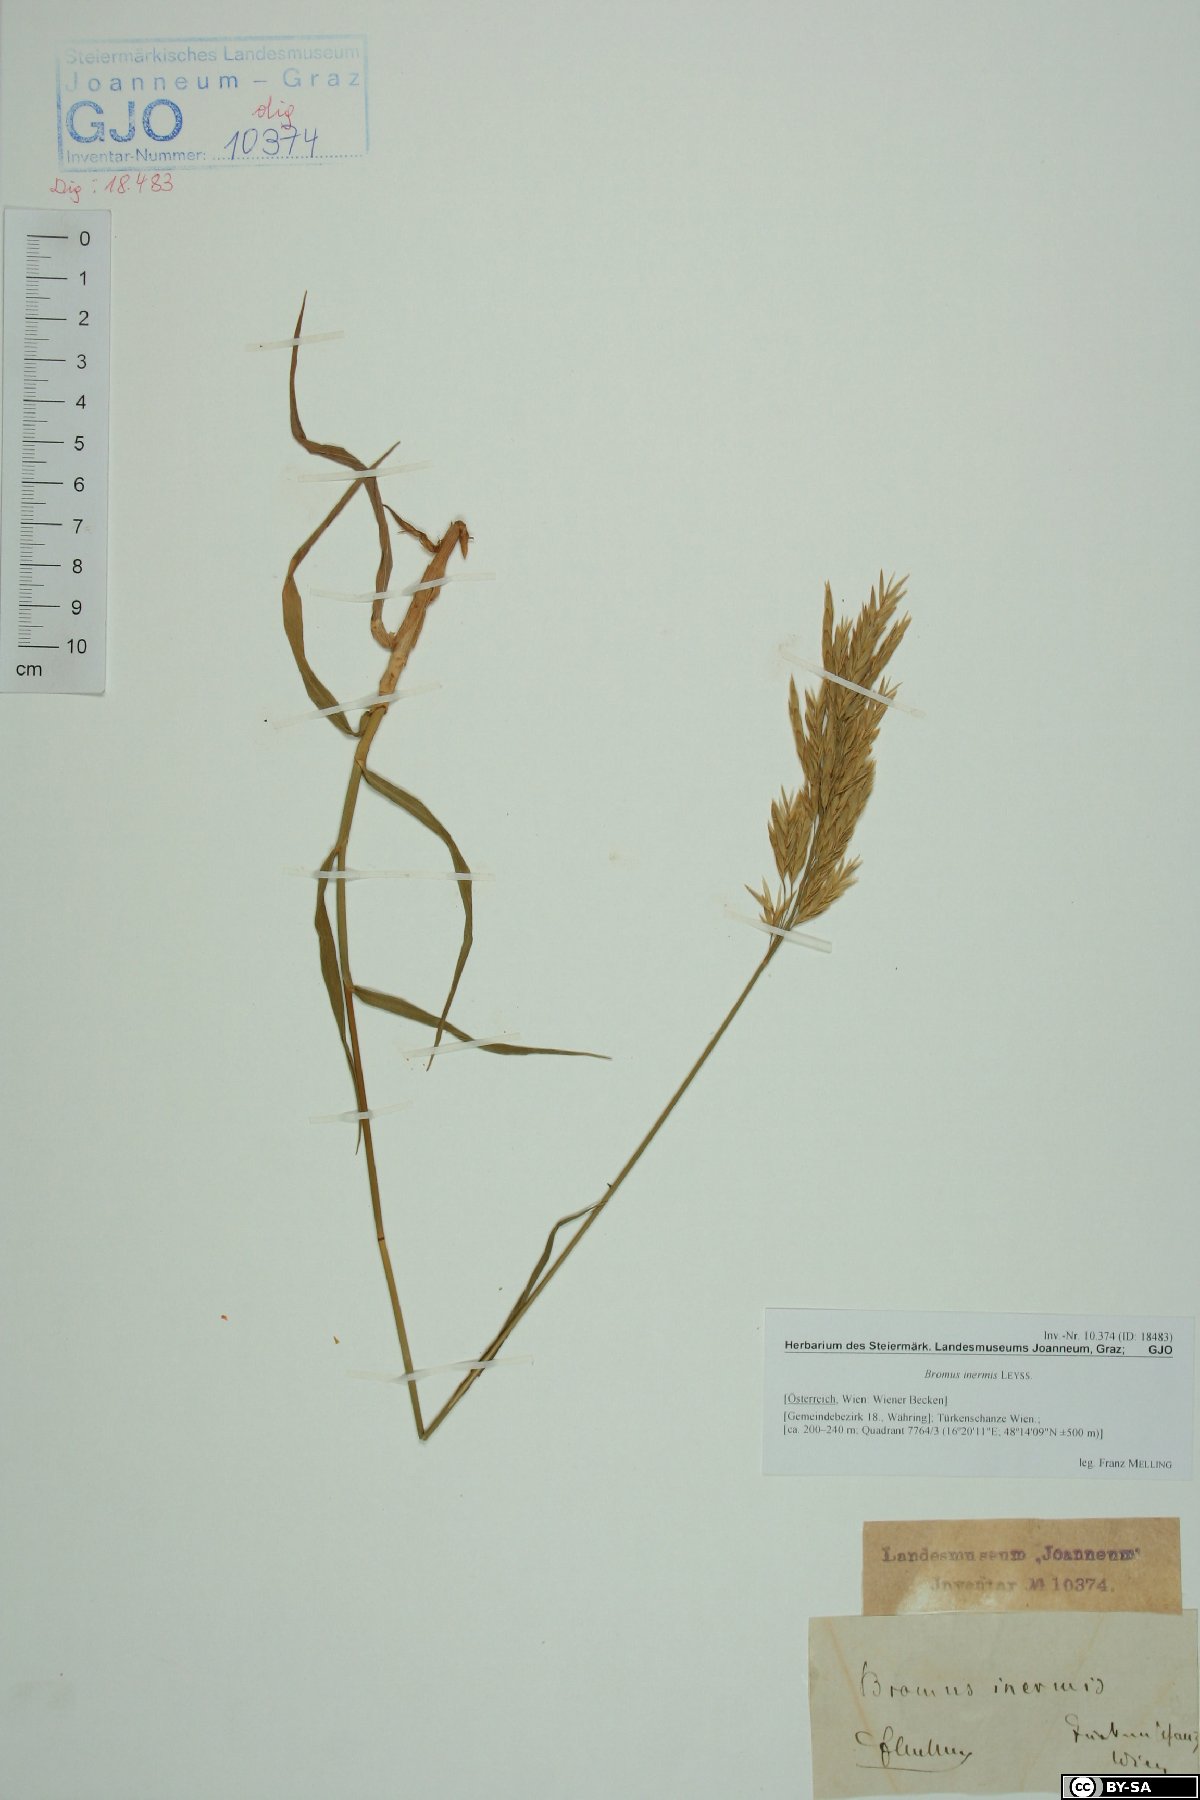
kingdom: Plantae
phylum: Tracheophyta
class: Liliopsida
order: Poales
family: Poaceae
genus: Bromus
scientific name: Bromus inermis
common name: Smooth brome
